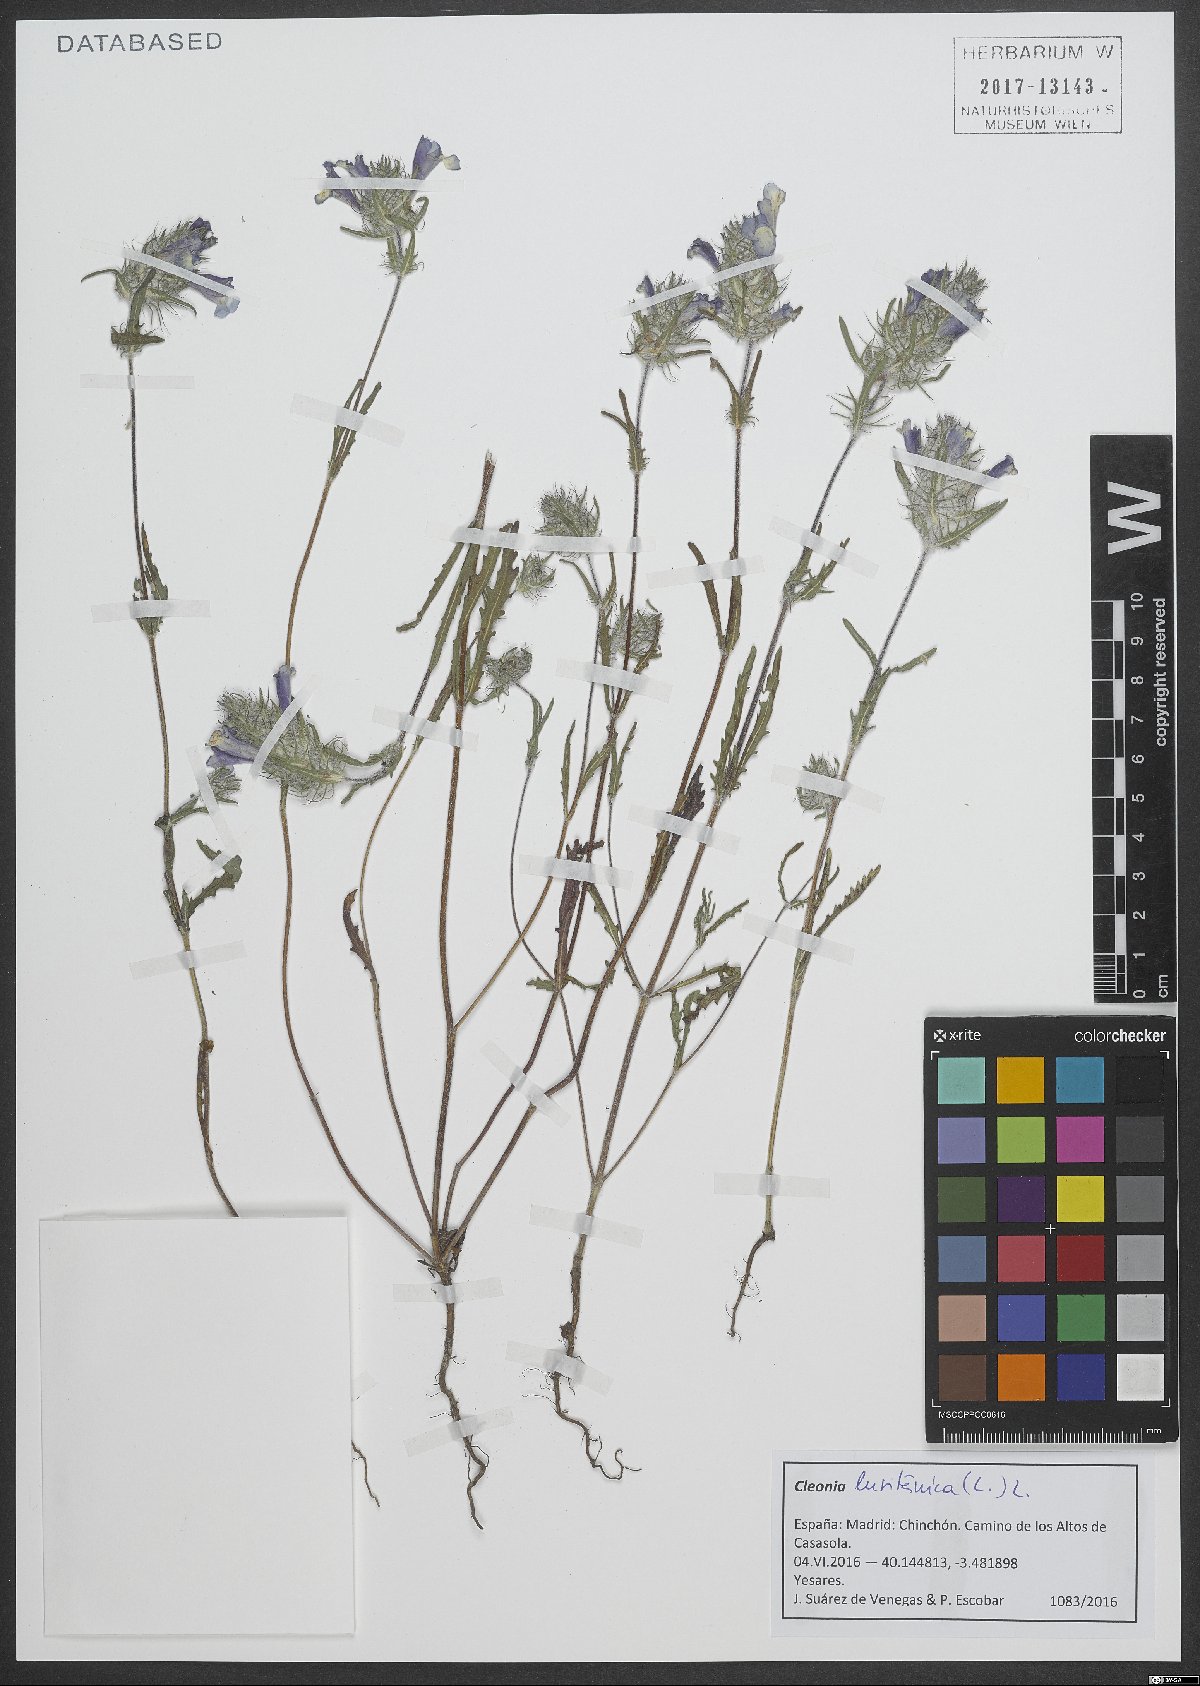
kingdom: Plantae
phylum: Tracheophyta
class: Magnoliopsida
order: Lamiales
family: Lamiaceae
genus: Cleonia
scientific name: Cleonia lusitanica
